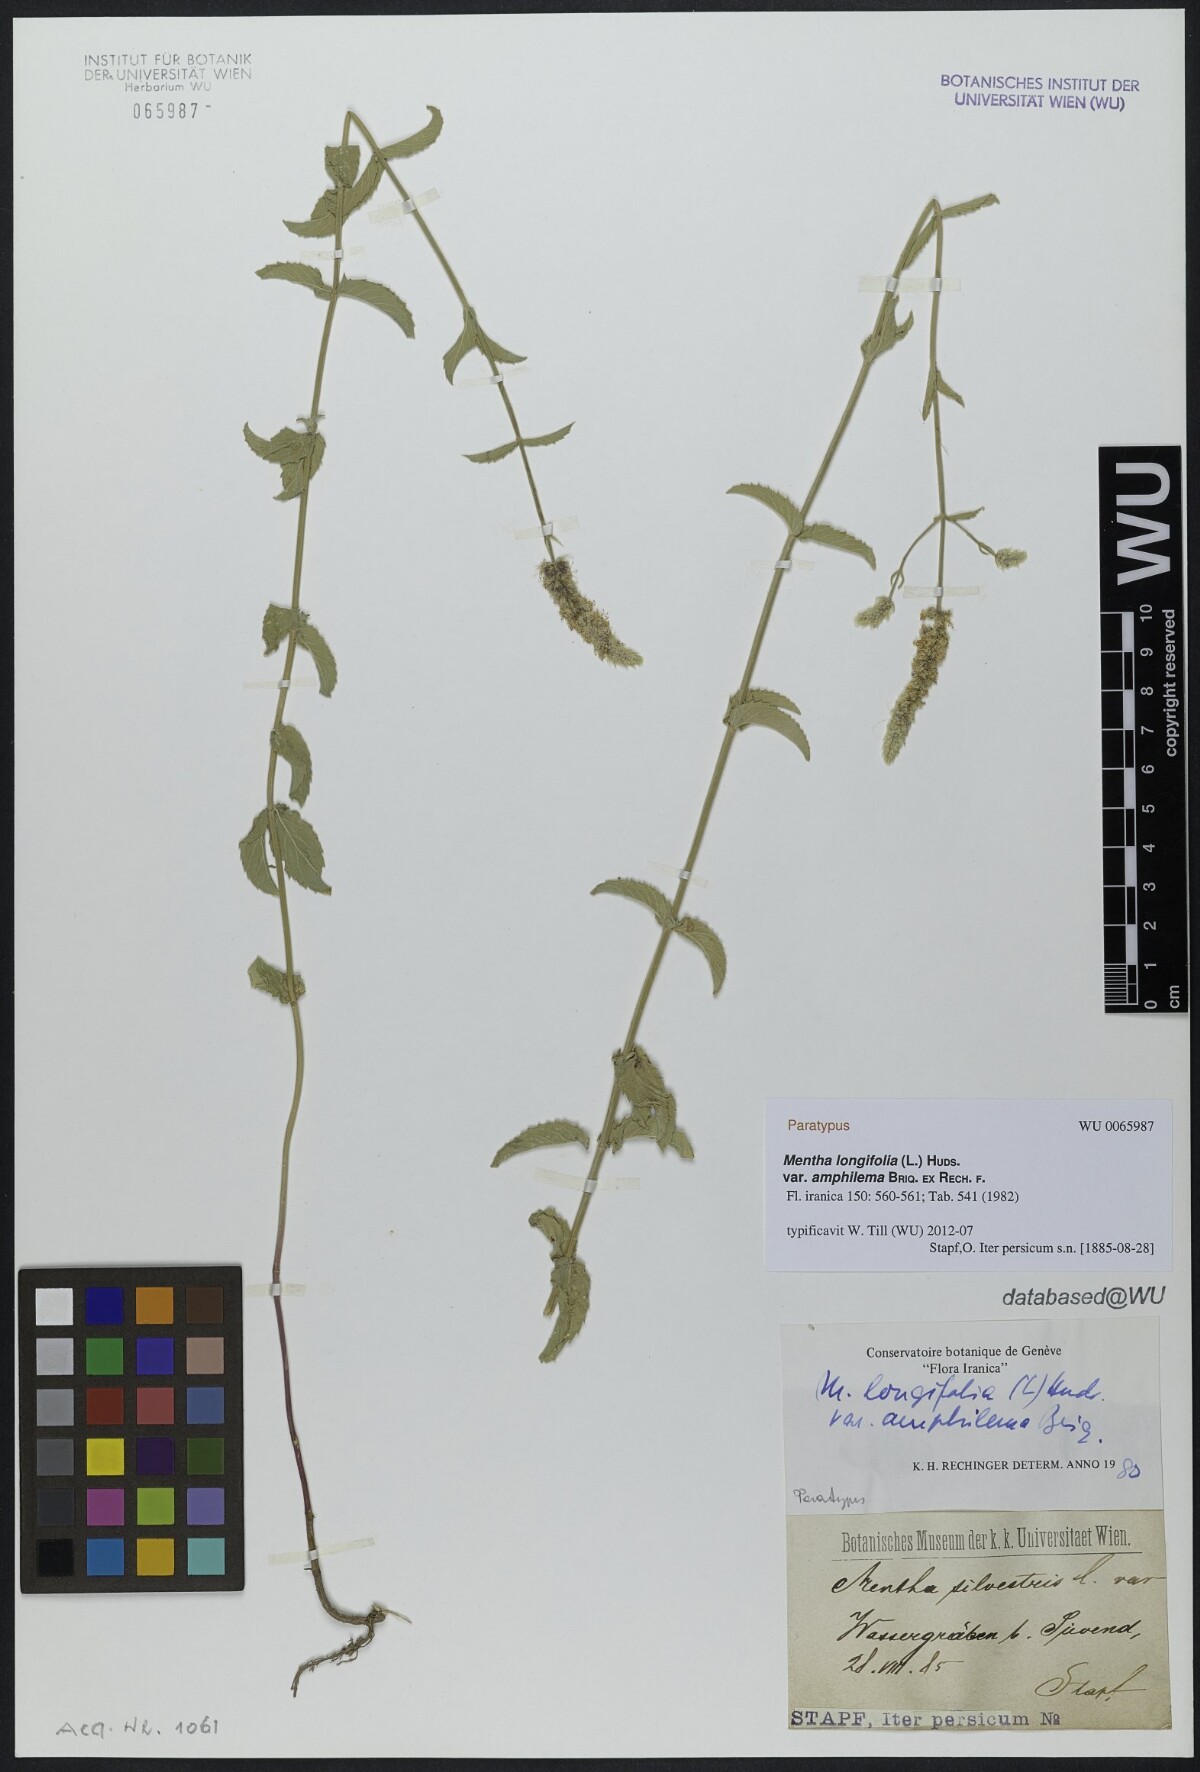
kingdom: Plantae
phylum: Tracheophyta
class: Magnoliopsida
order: Lamiales
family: Lamiaceae
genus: Mentha
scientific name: Mentha longifolia
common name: Horse mint
